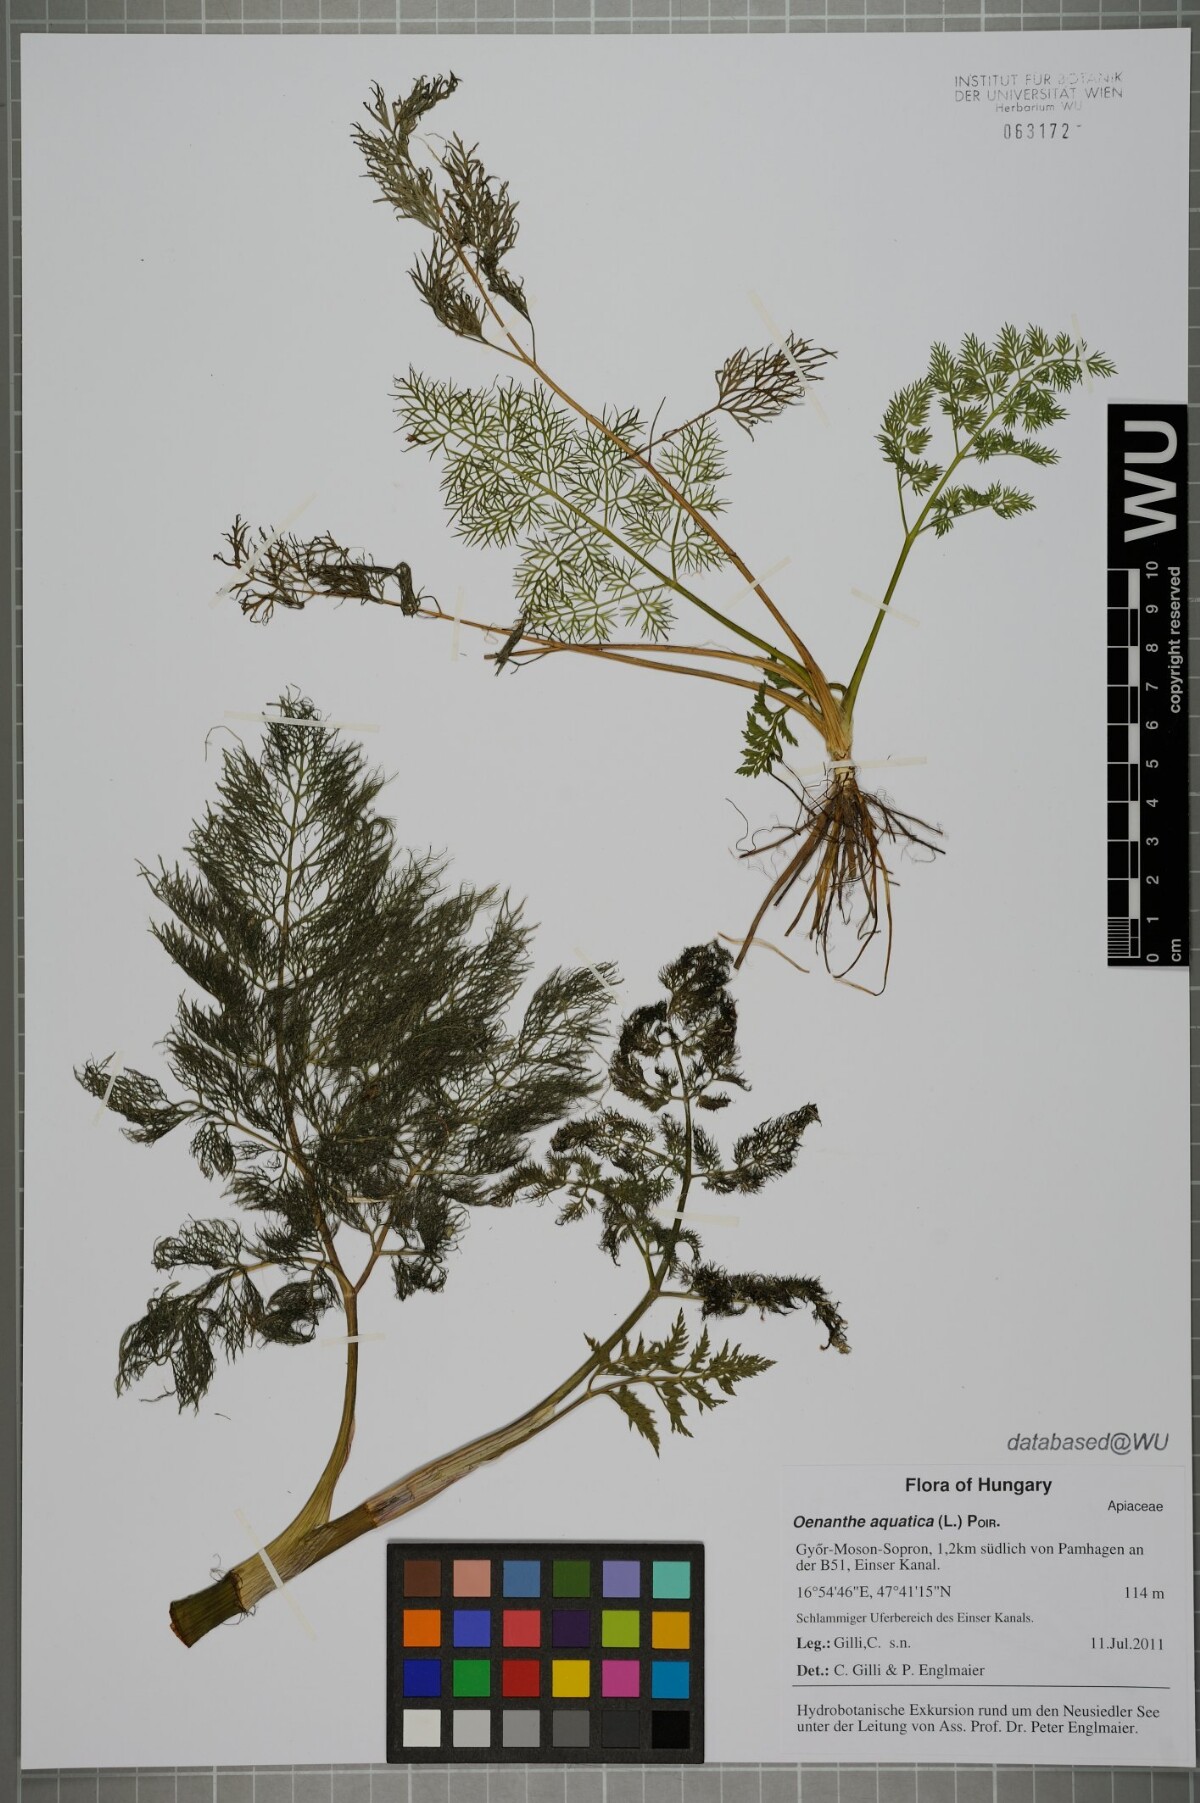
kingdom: Plantae
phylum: Tracheophyta
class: Magnoliopsida
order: Apiales
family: Apiaceae
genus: Oenanthe
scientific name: Oenanthe aquatica
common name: Fine-leaved water-dropwort
